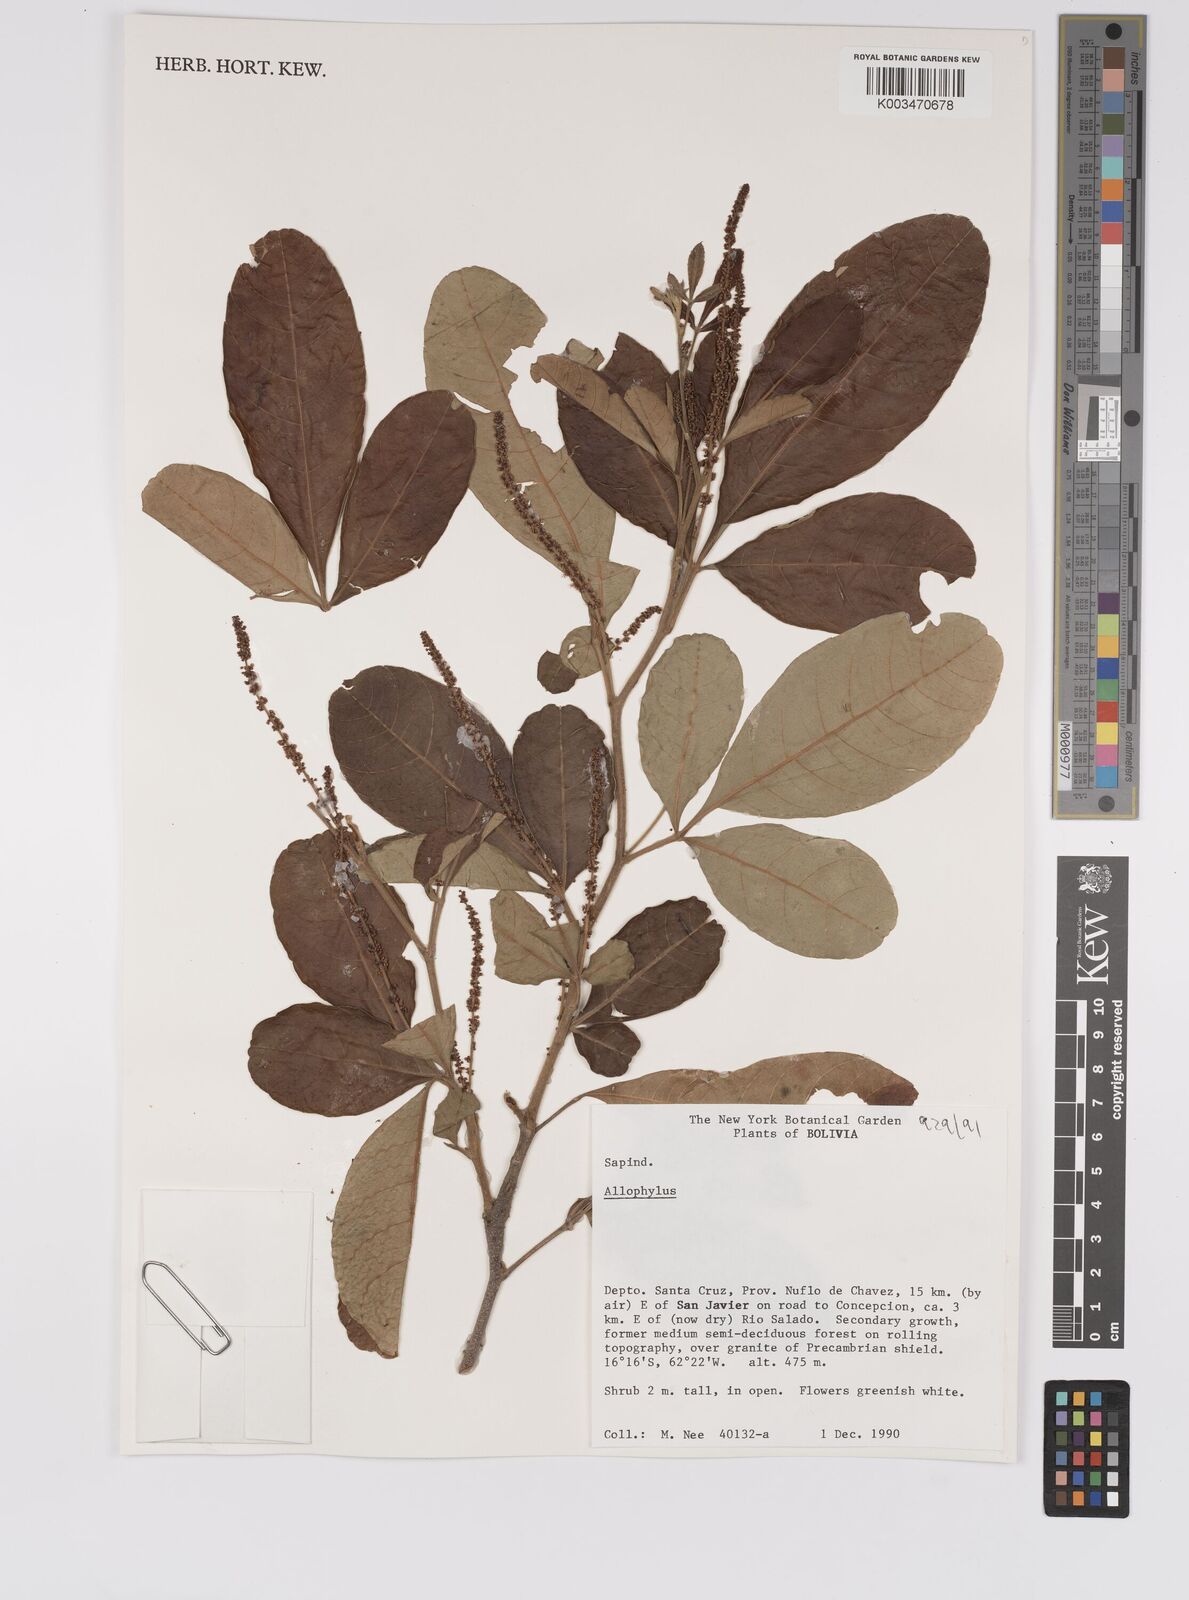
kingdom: Plantae
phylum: Tracheophyta
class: Magnoliopsida
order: Sapindales
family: Sapindaceae
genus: Allophylus
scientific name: Allophylus
